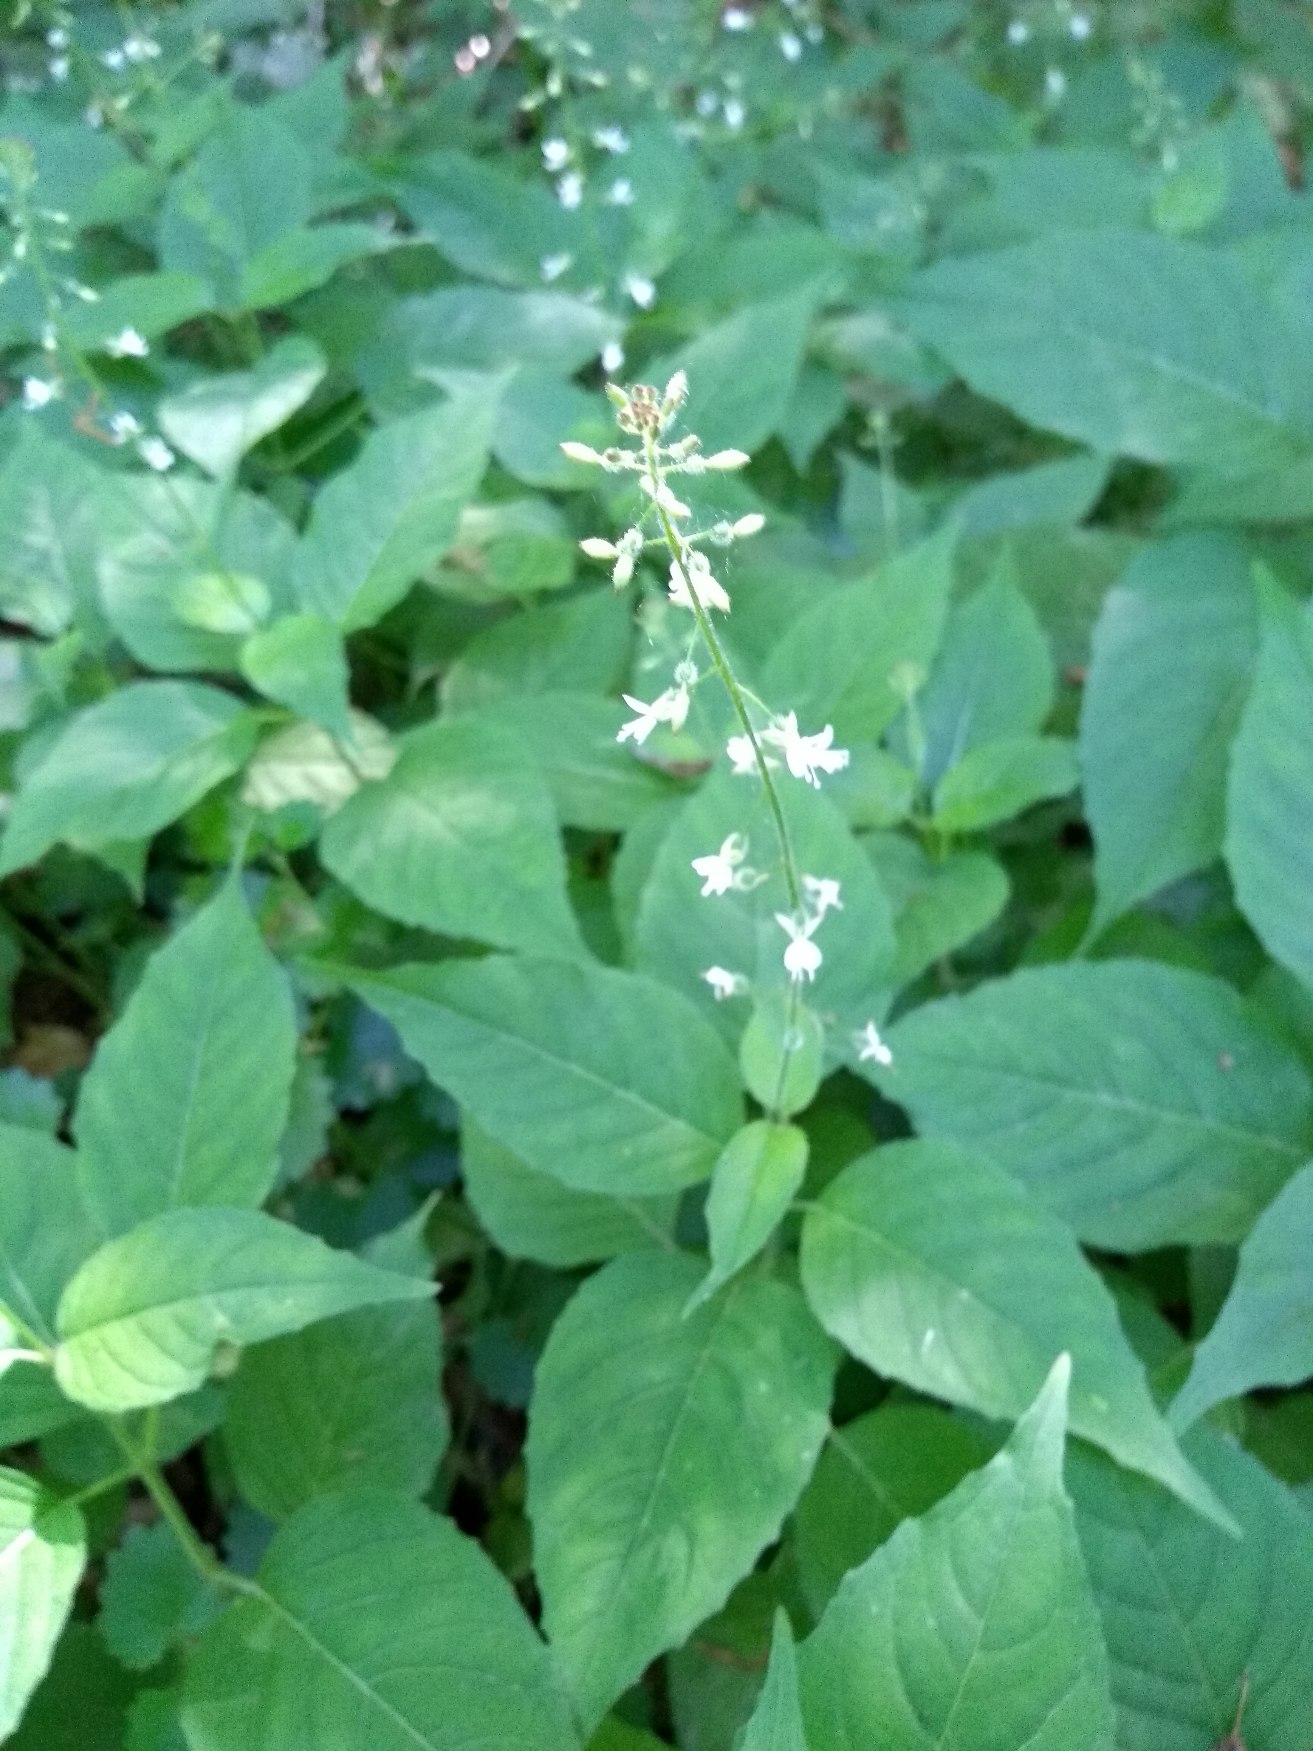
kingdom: Plantae
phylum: Tracheophyta
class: Magnoliopsida
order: Myrtales
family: Onagraceae
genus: Circaea
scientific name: Circaea lutetiana
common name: Dunet steffensurt
